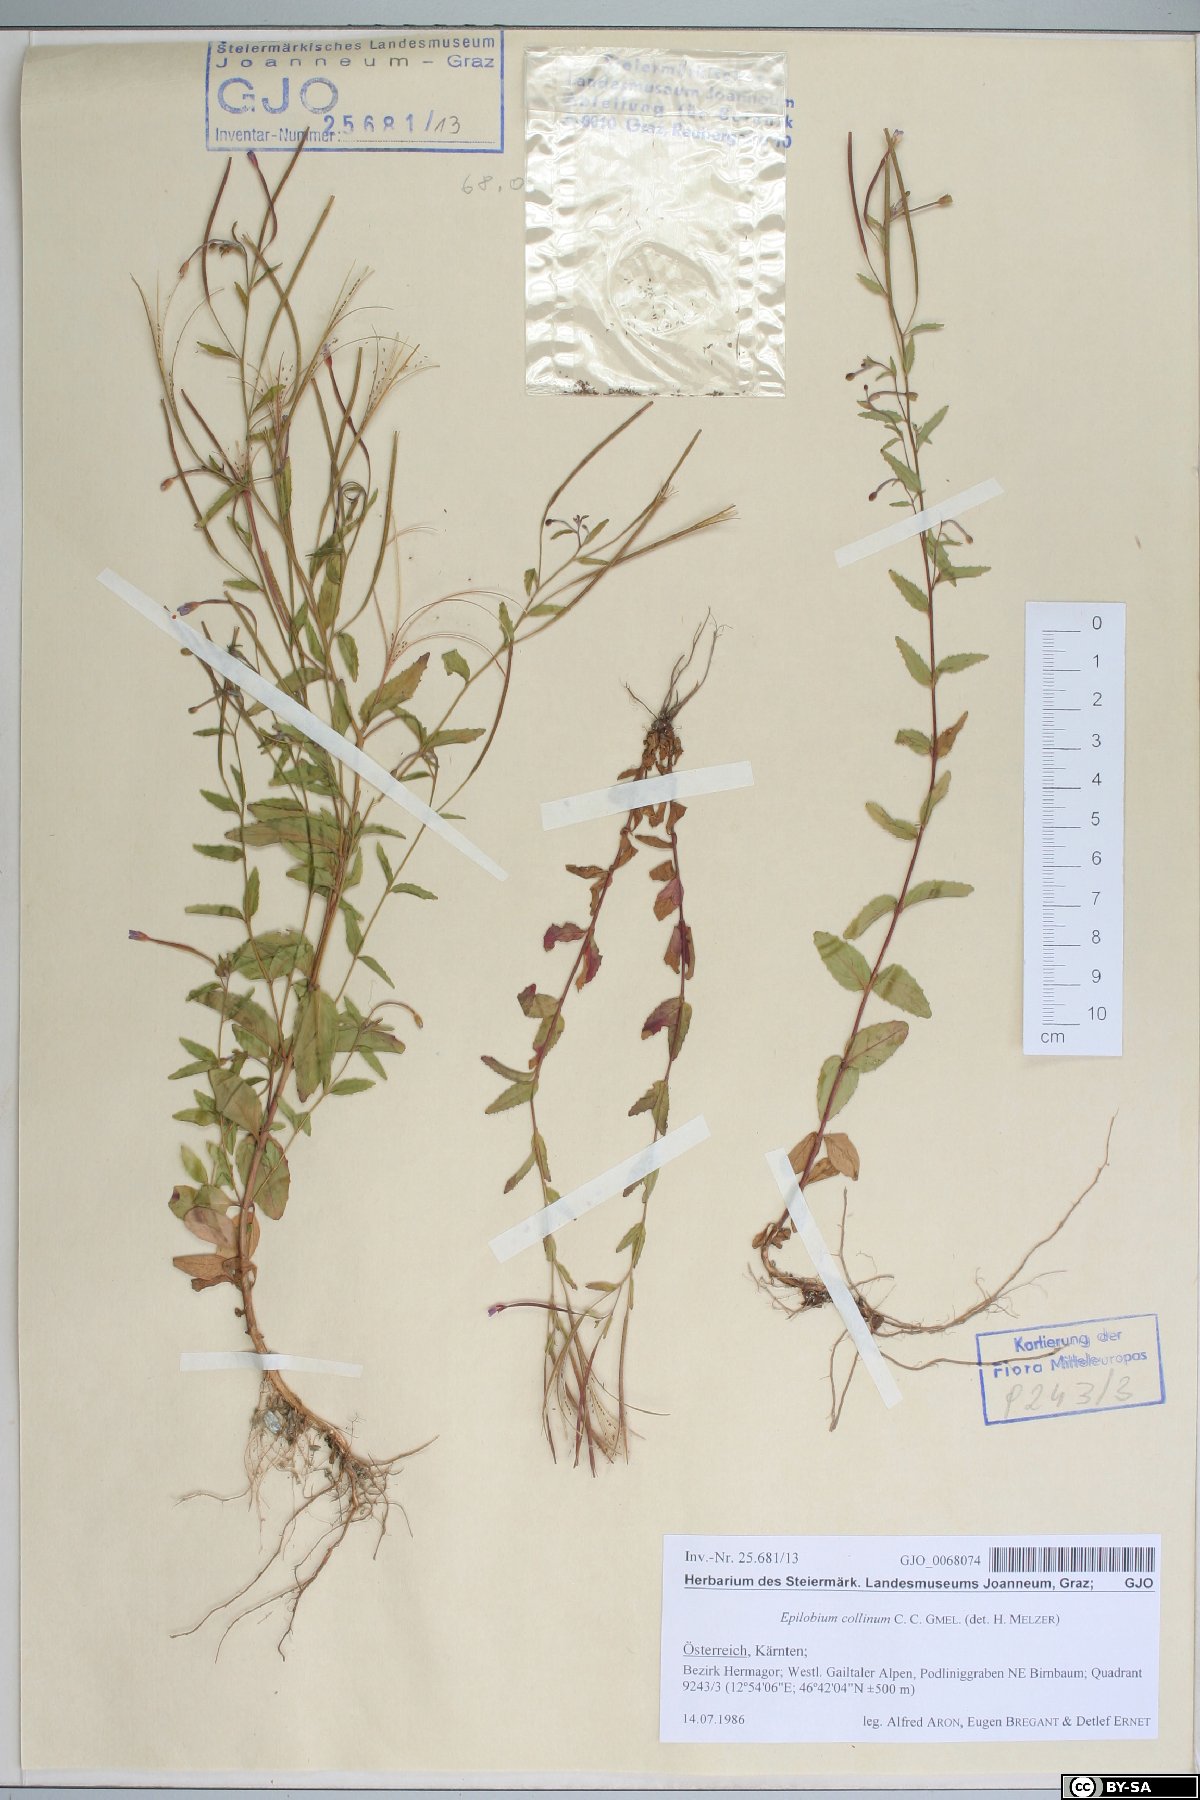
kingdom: Plantae
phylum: Tracheophyta
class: Magnoliopsida
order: Myrtales
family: Onagraceae
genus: Epilobium
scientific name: Epilobium collinum
